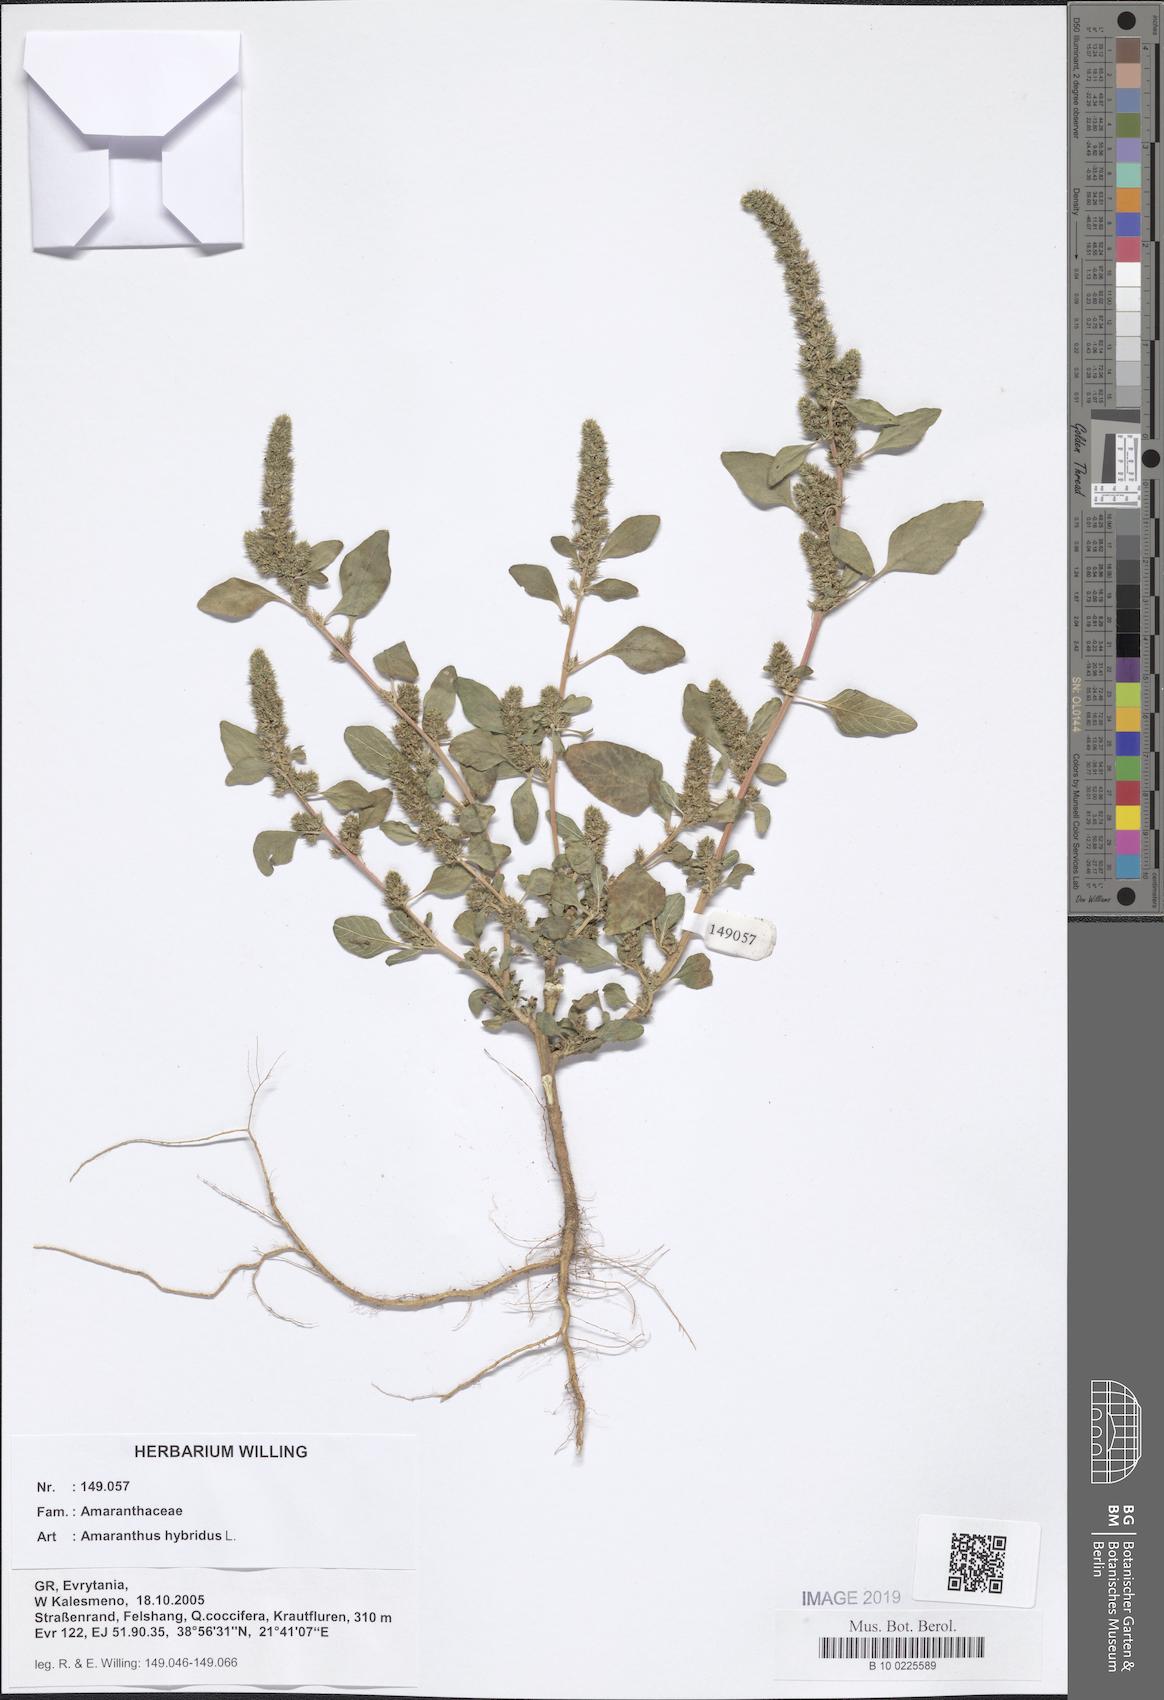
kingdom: Plantae
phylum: Tracheophyta
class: Magnoliopsida
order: Caryophyllales
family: Amaranthaceae
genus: Amaranthus
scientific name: Amaranthus hybridus
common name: Green amaranth
